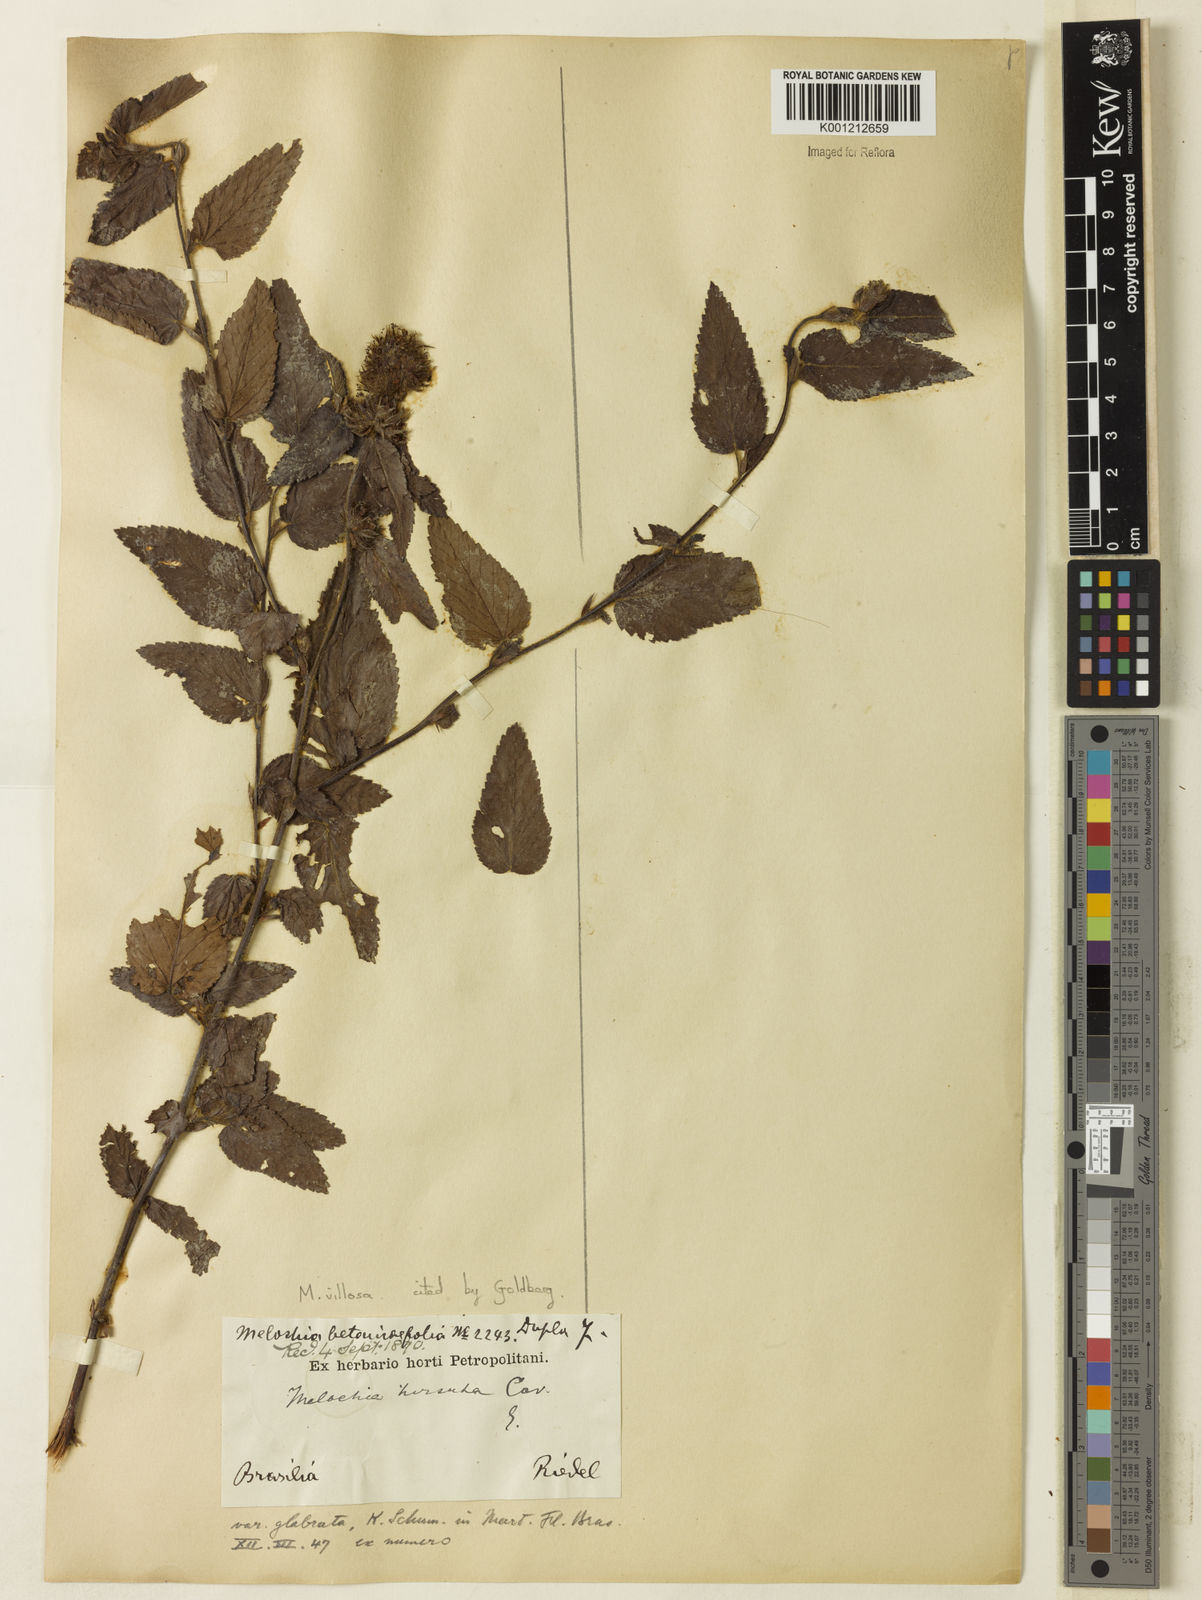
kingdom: Plantae
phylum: Tracheophyta
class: Magnoliopsida
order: Malvales
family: Malvaceae
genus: Melochia
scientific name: Melochia spicata
